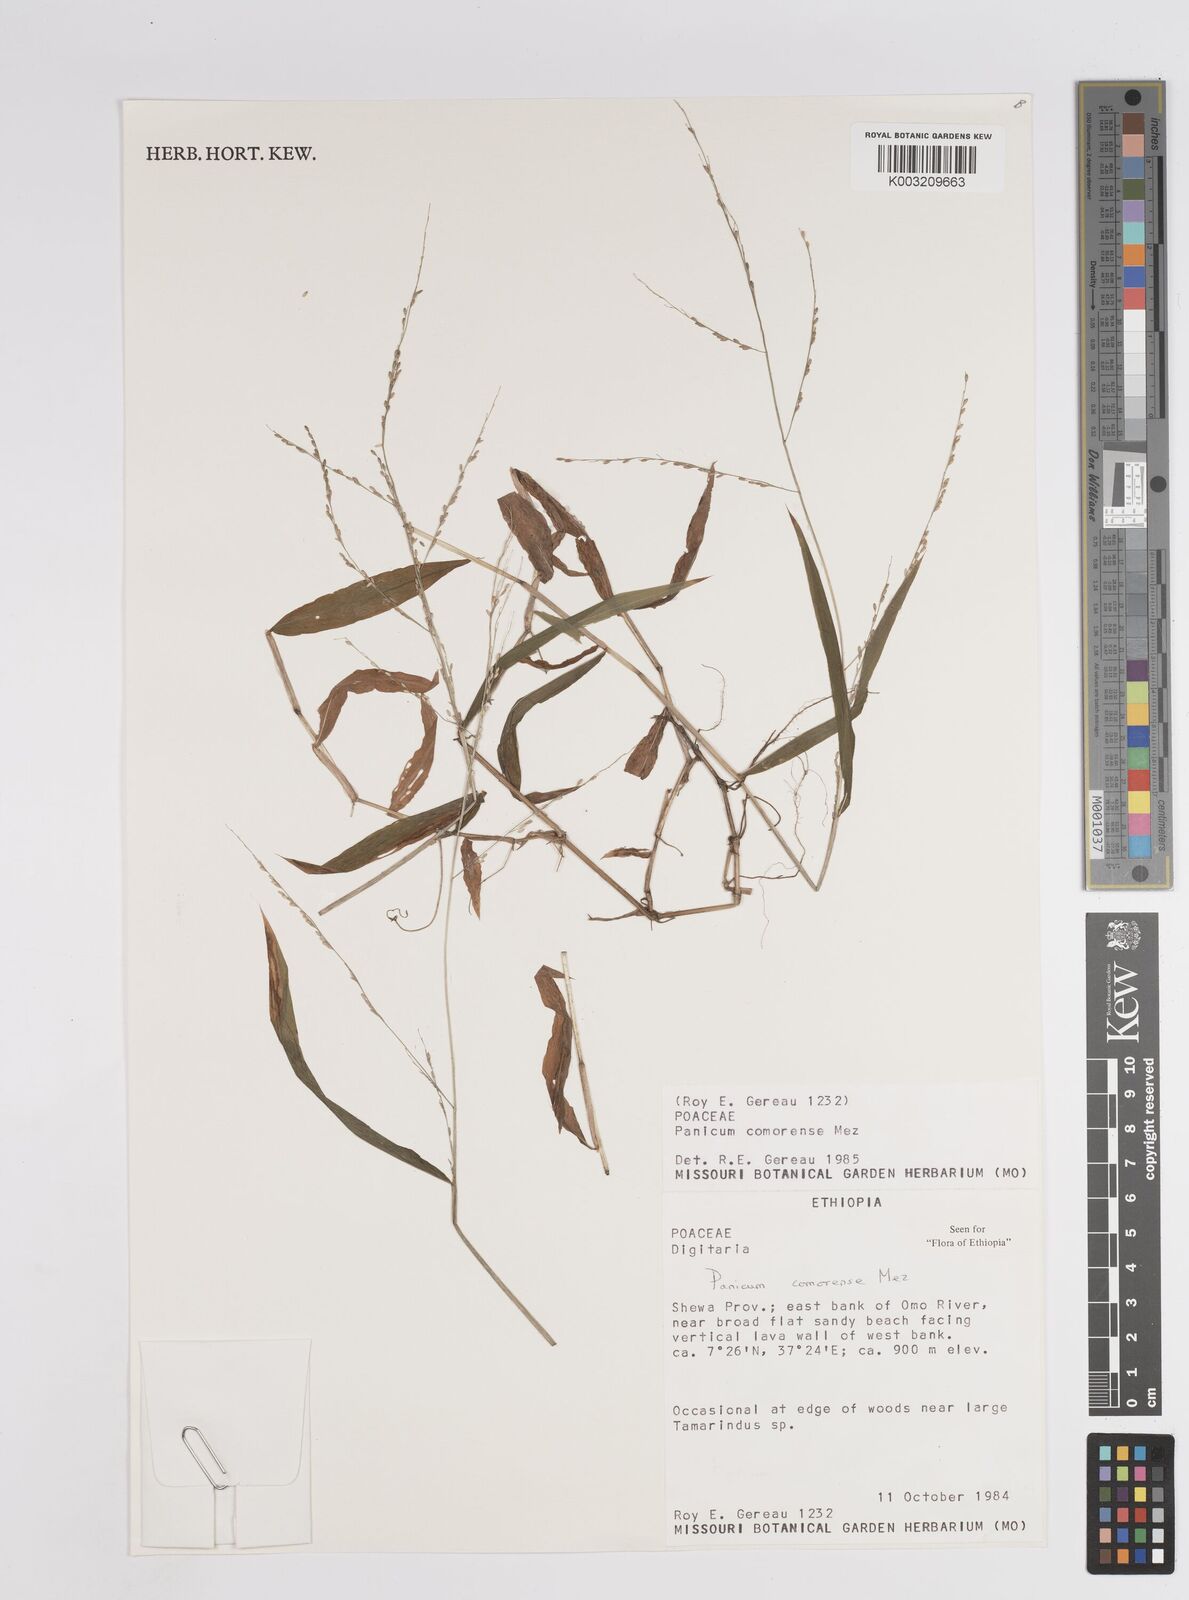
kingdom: Plantae
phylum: Tracheophyta
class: Liliopsida
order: Poales
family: Poaceae
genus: Panicum
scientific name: Panicum comorense
